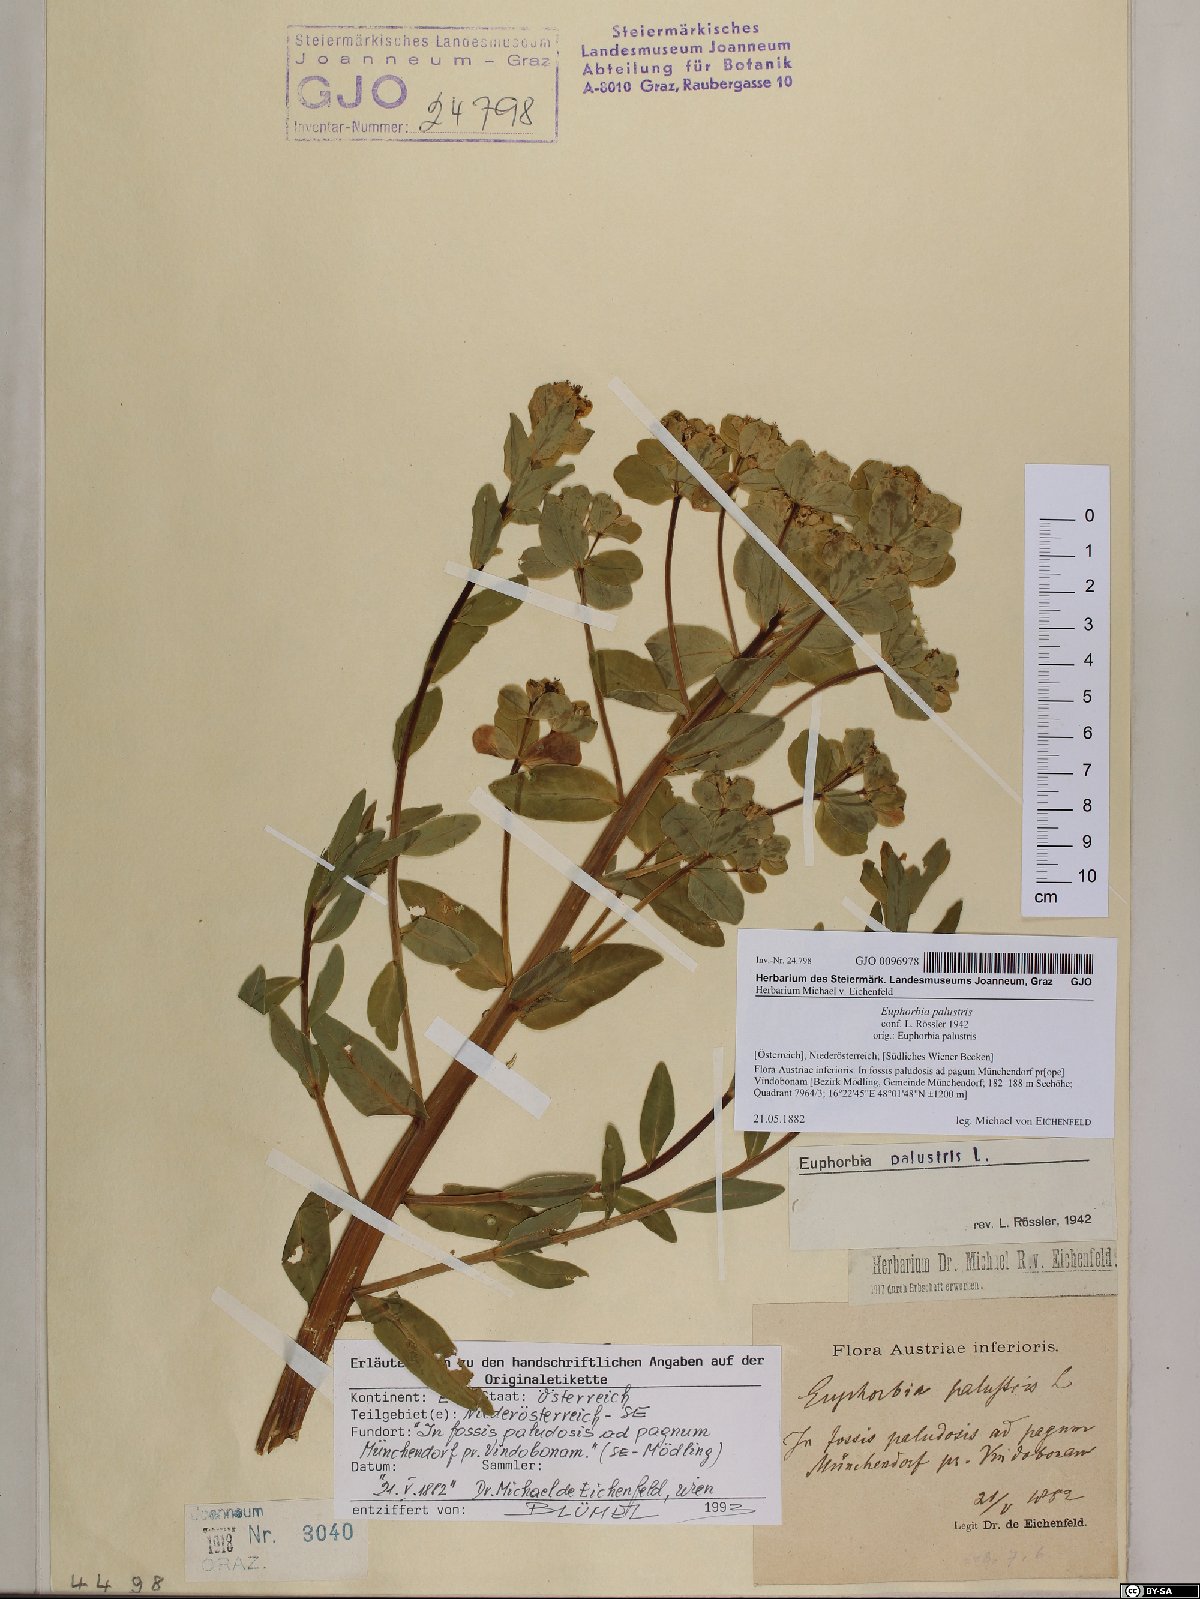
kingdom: Plantae
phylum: Tracheophyta
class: Magnoliopsida
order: Malpighiales
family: Euphorbiaceae
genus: Euphorbia
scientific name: Euphorbia palustris
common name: Marsh spurge
